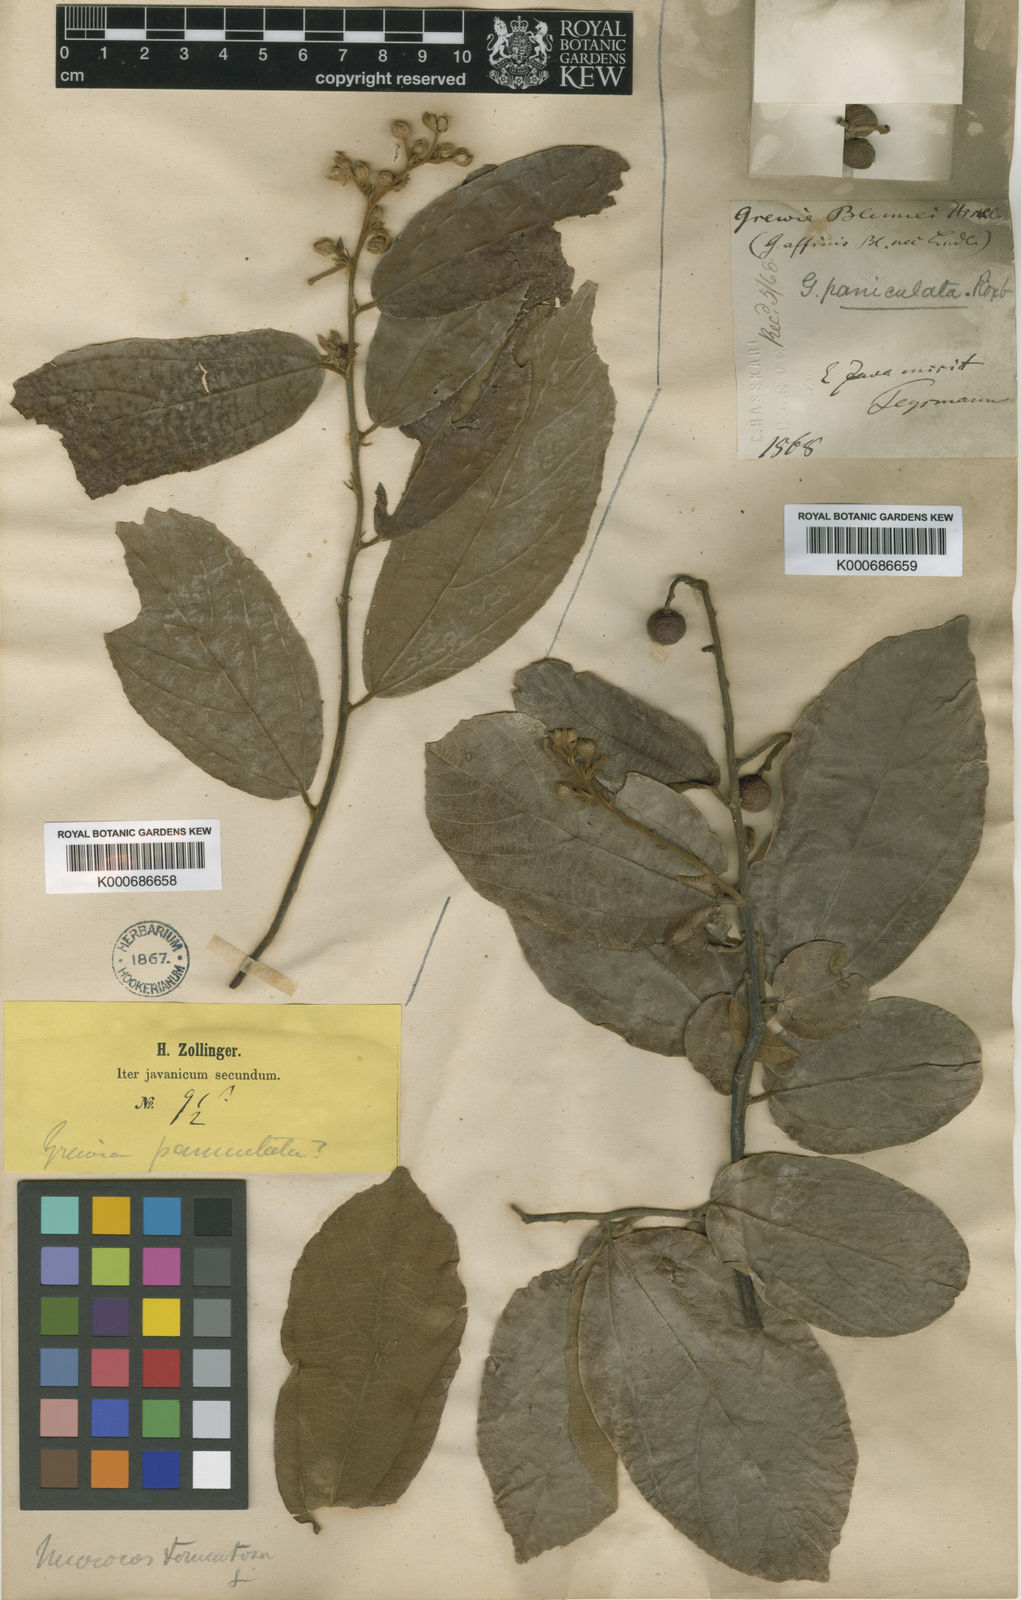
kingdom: Plantae
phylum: Tracheophyta
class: Magnoliopsida
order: Malvales
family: Malvaceae
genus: Microcos
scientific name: Microcos tomentosa
